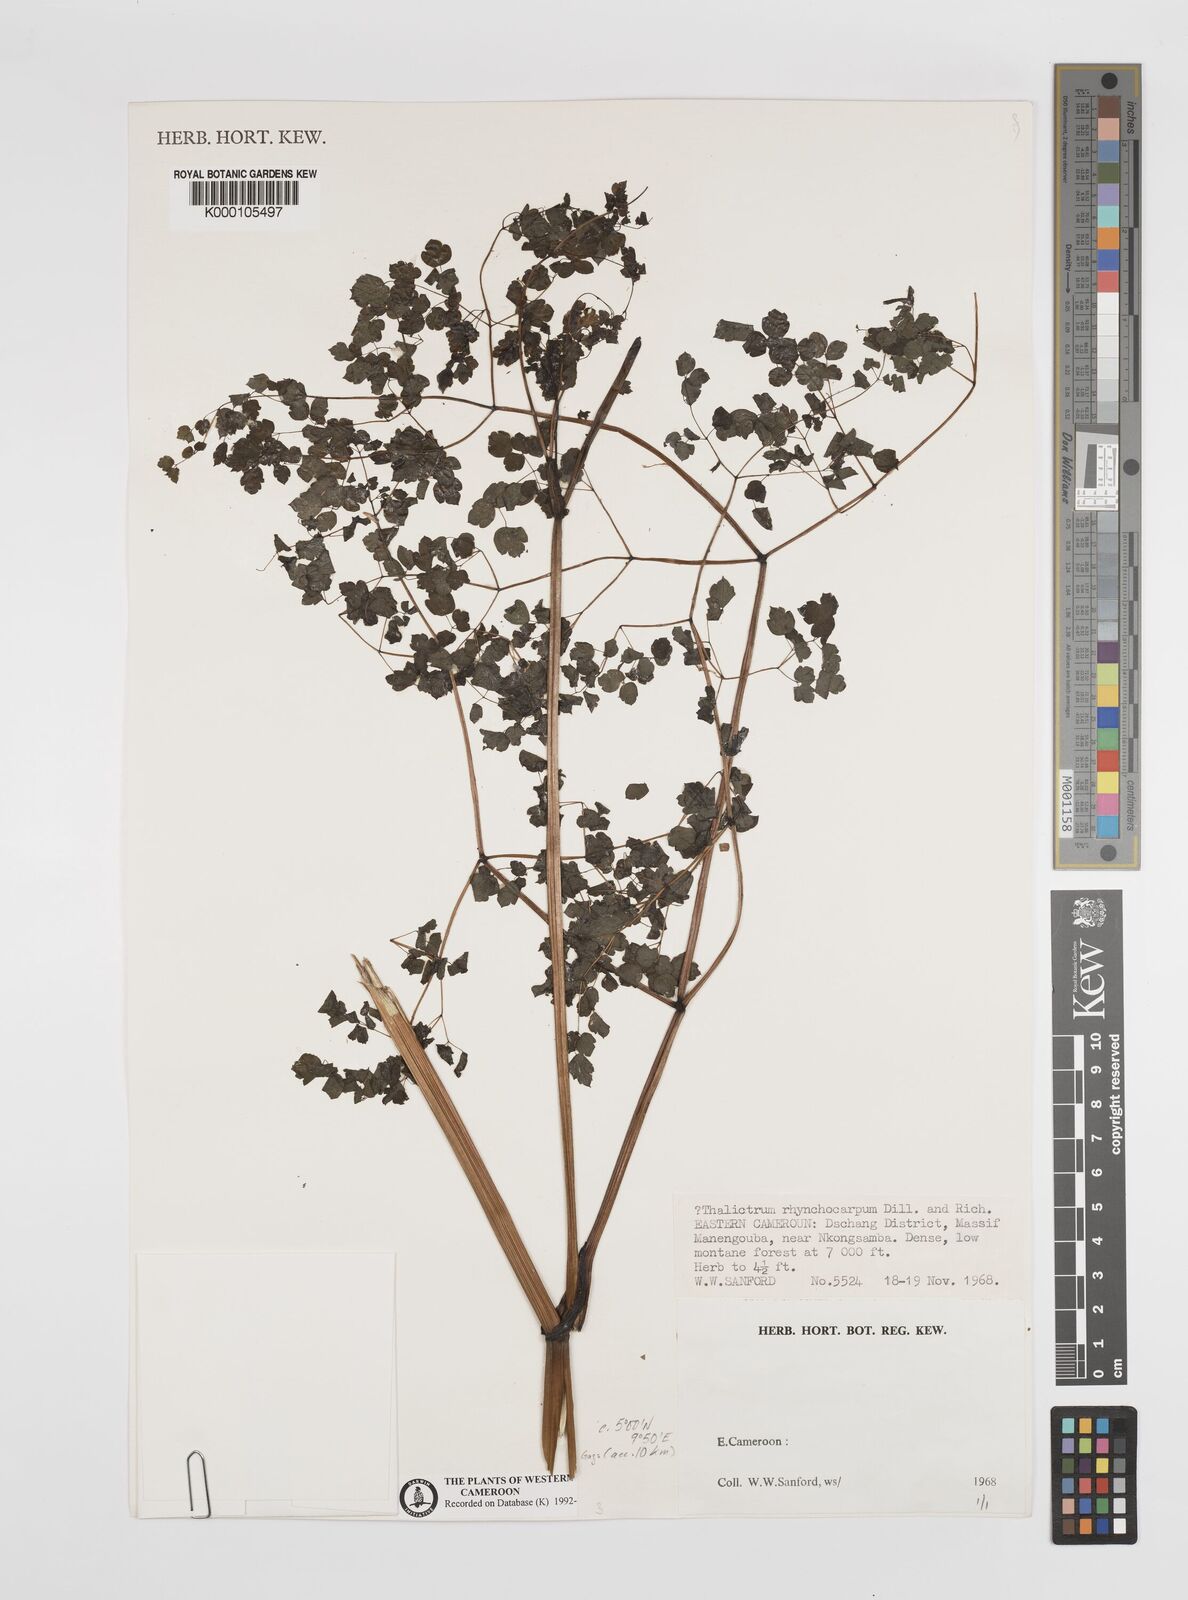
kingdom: Plantae
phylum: Tracheophyta
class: Magnoliopsida
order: Ranunculales
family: Ranunculaceae
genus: Thalictrum
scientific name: Thalictrum rhynchocarpum
